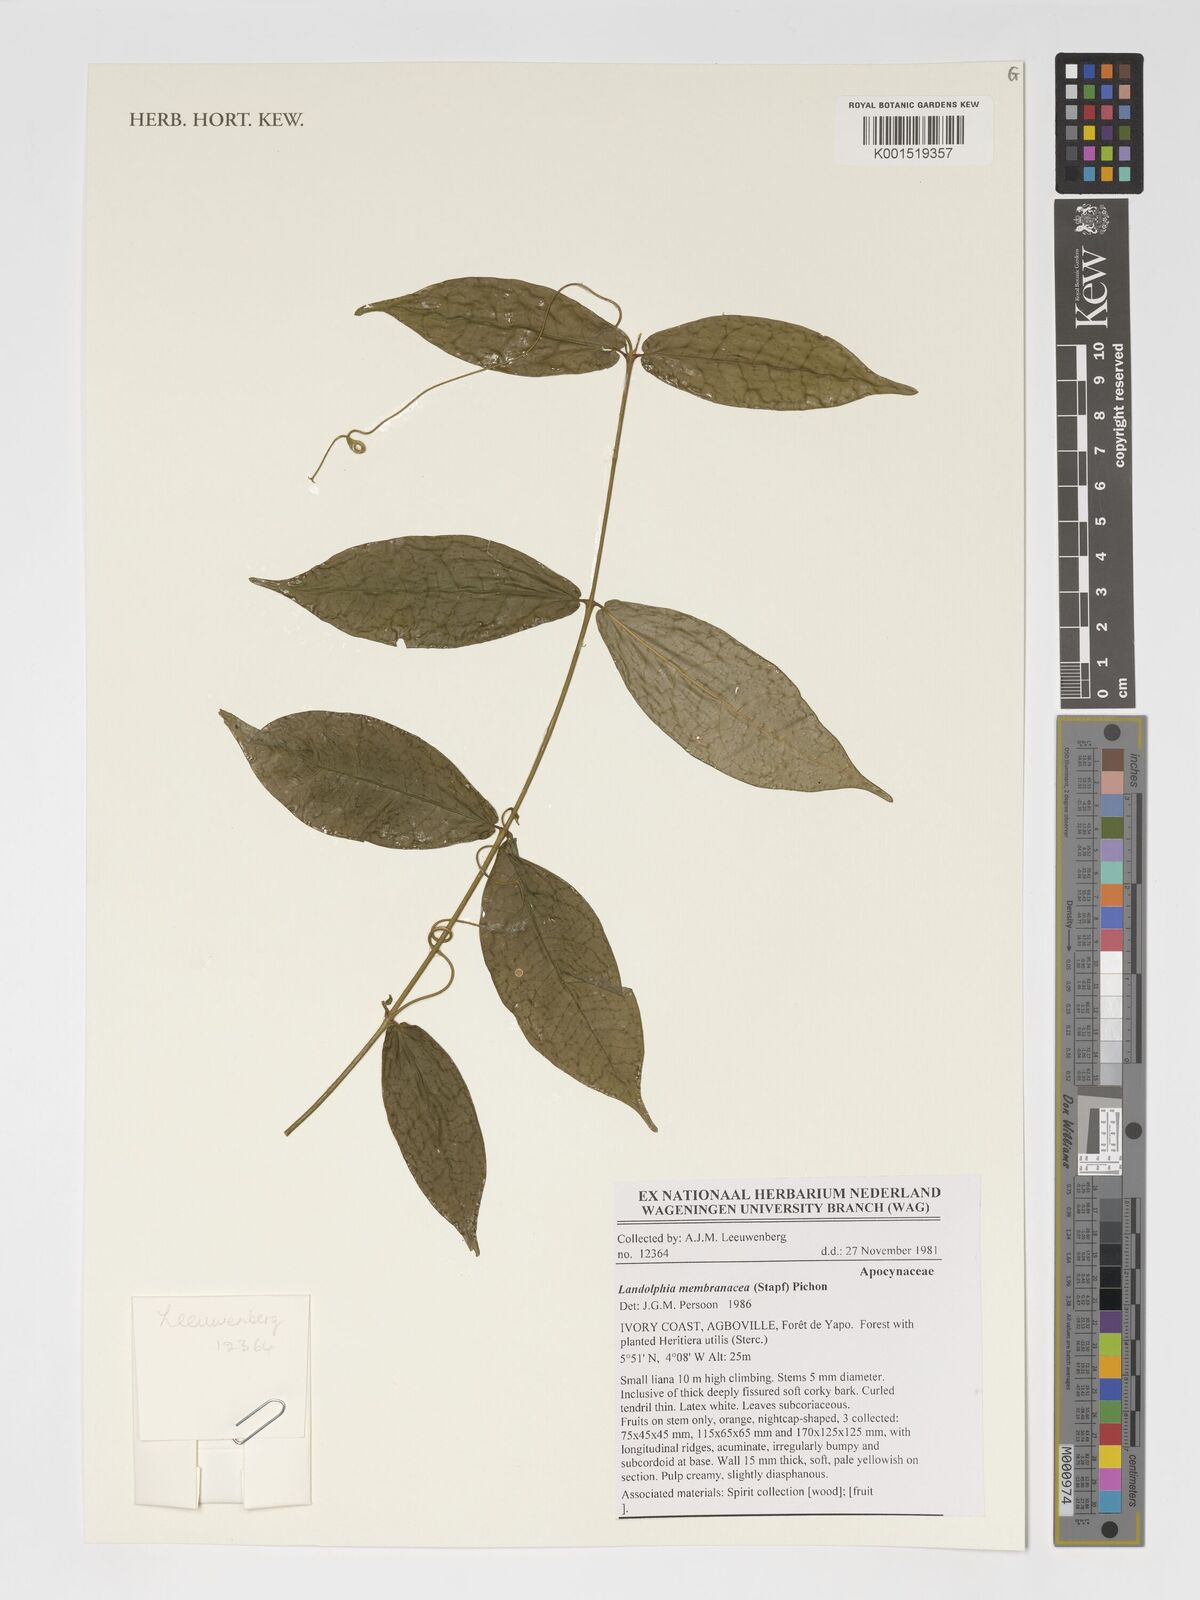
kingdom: Plantae
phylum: Tracheophyta
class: Magnoliopsida
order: Gentianales
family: Apocynaceae
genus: Landolphia
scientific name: Landolphia membranacea
